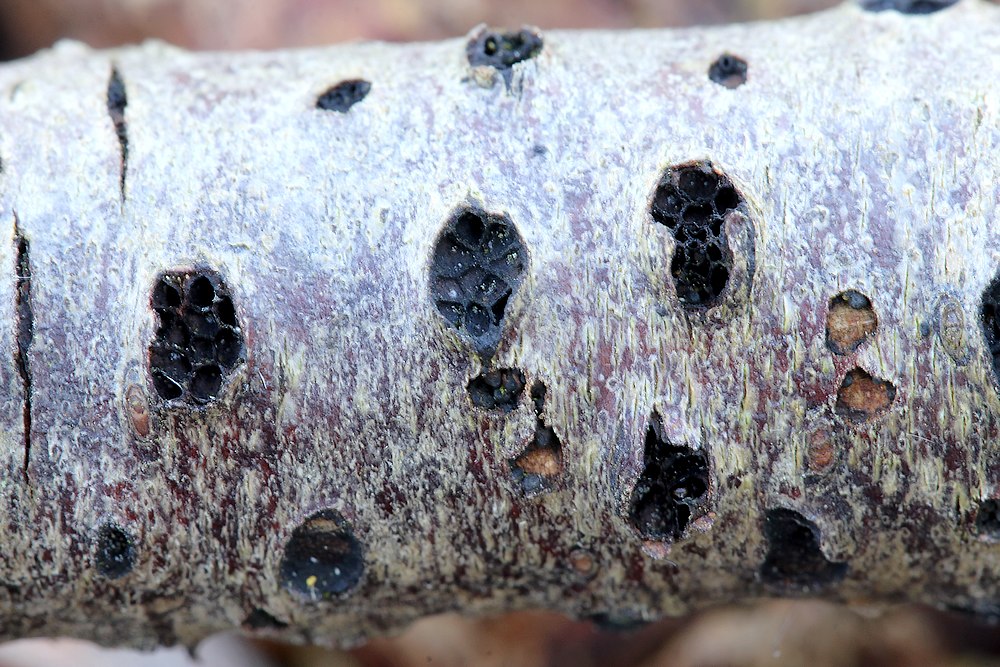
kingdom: Fungi
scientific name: Fungi
